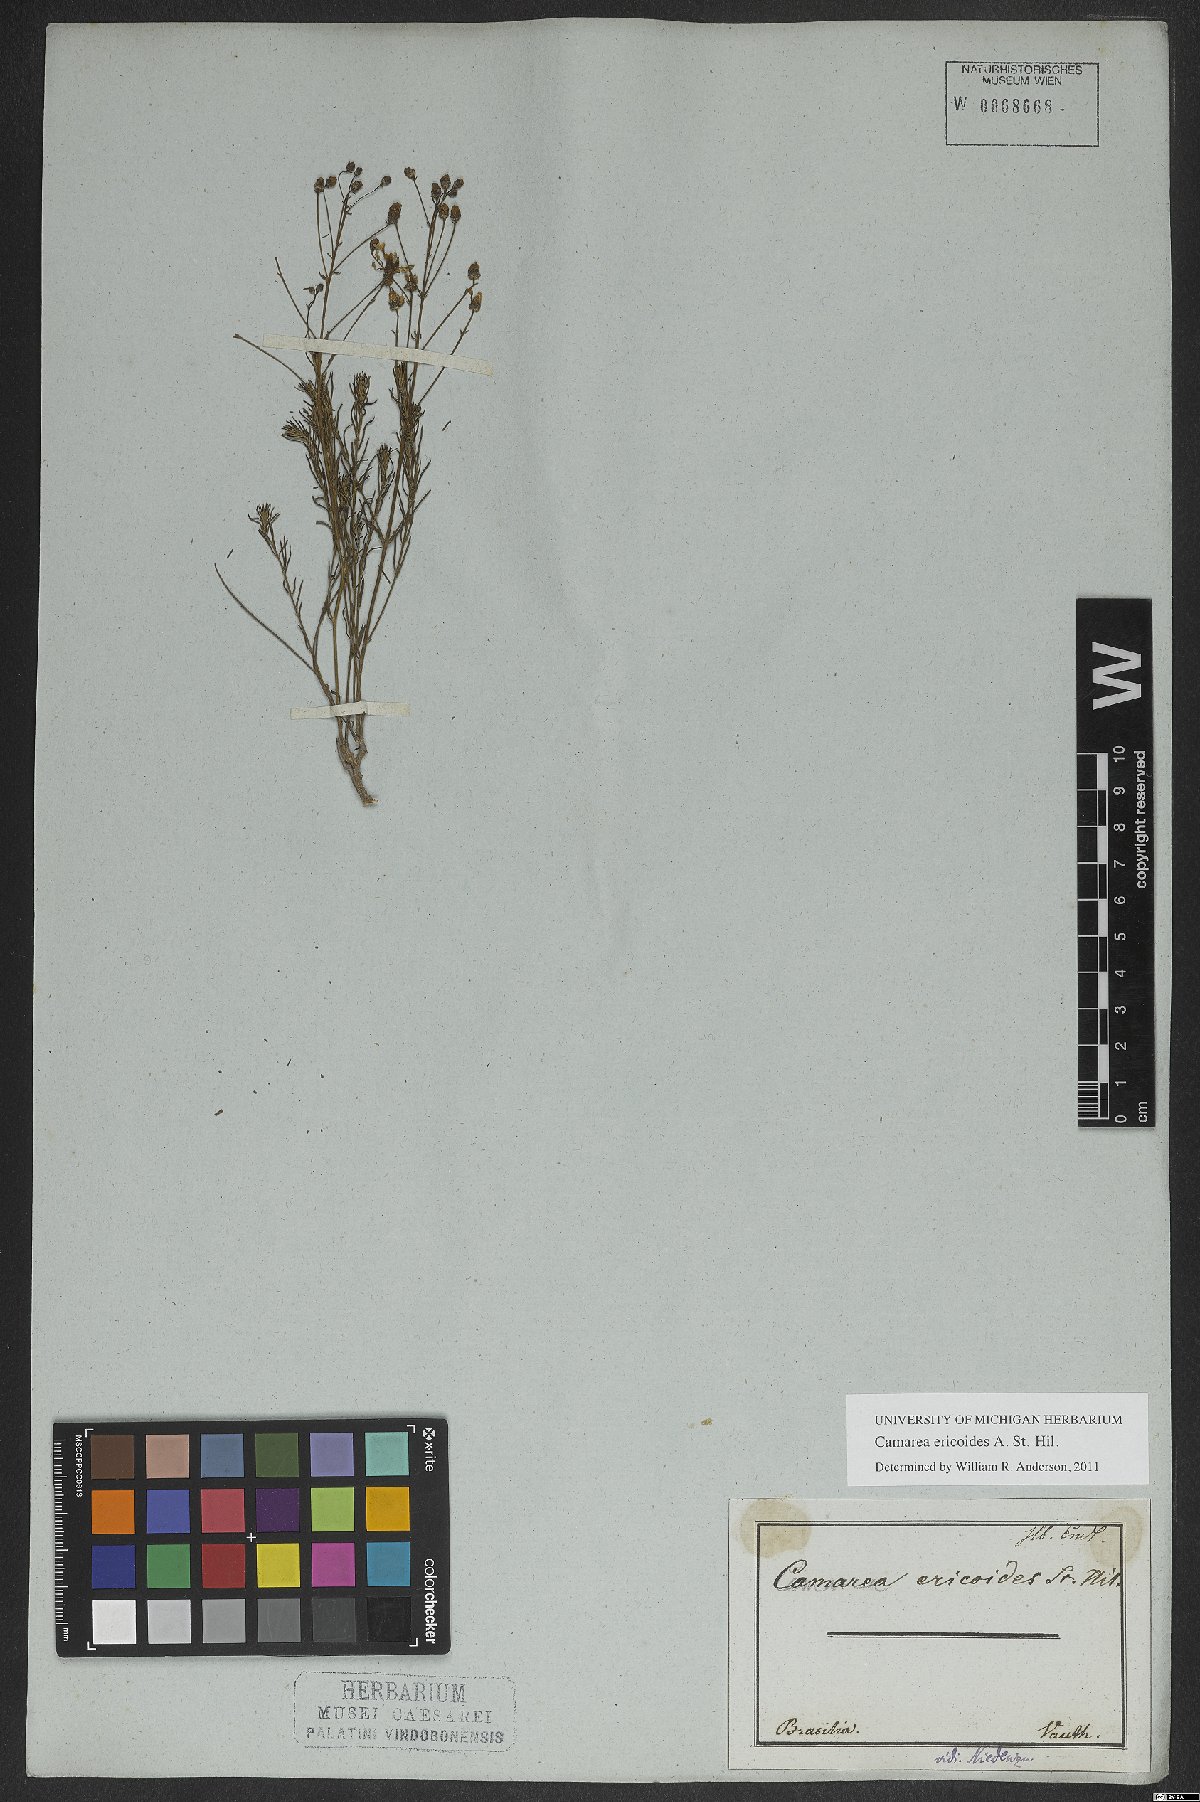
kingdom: Plantae
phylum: Tracheophyta
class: Magnoliopsida
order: Malpighiales
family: Malpighiaceae
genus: Camarea
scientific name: Camarea ericoides
